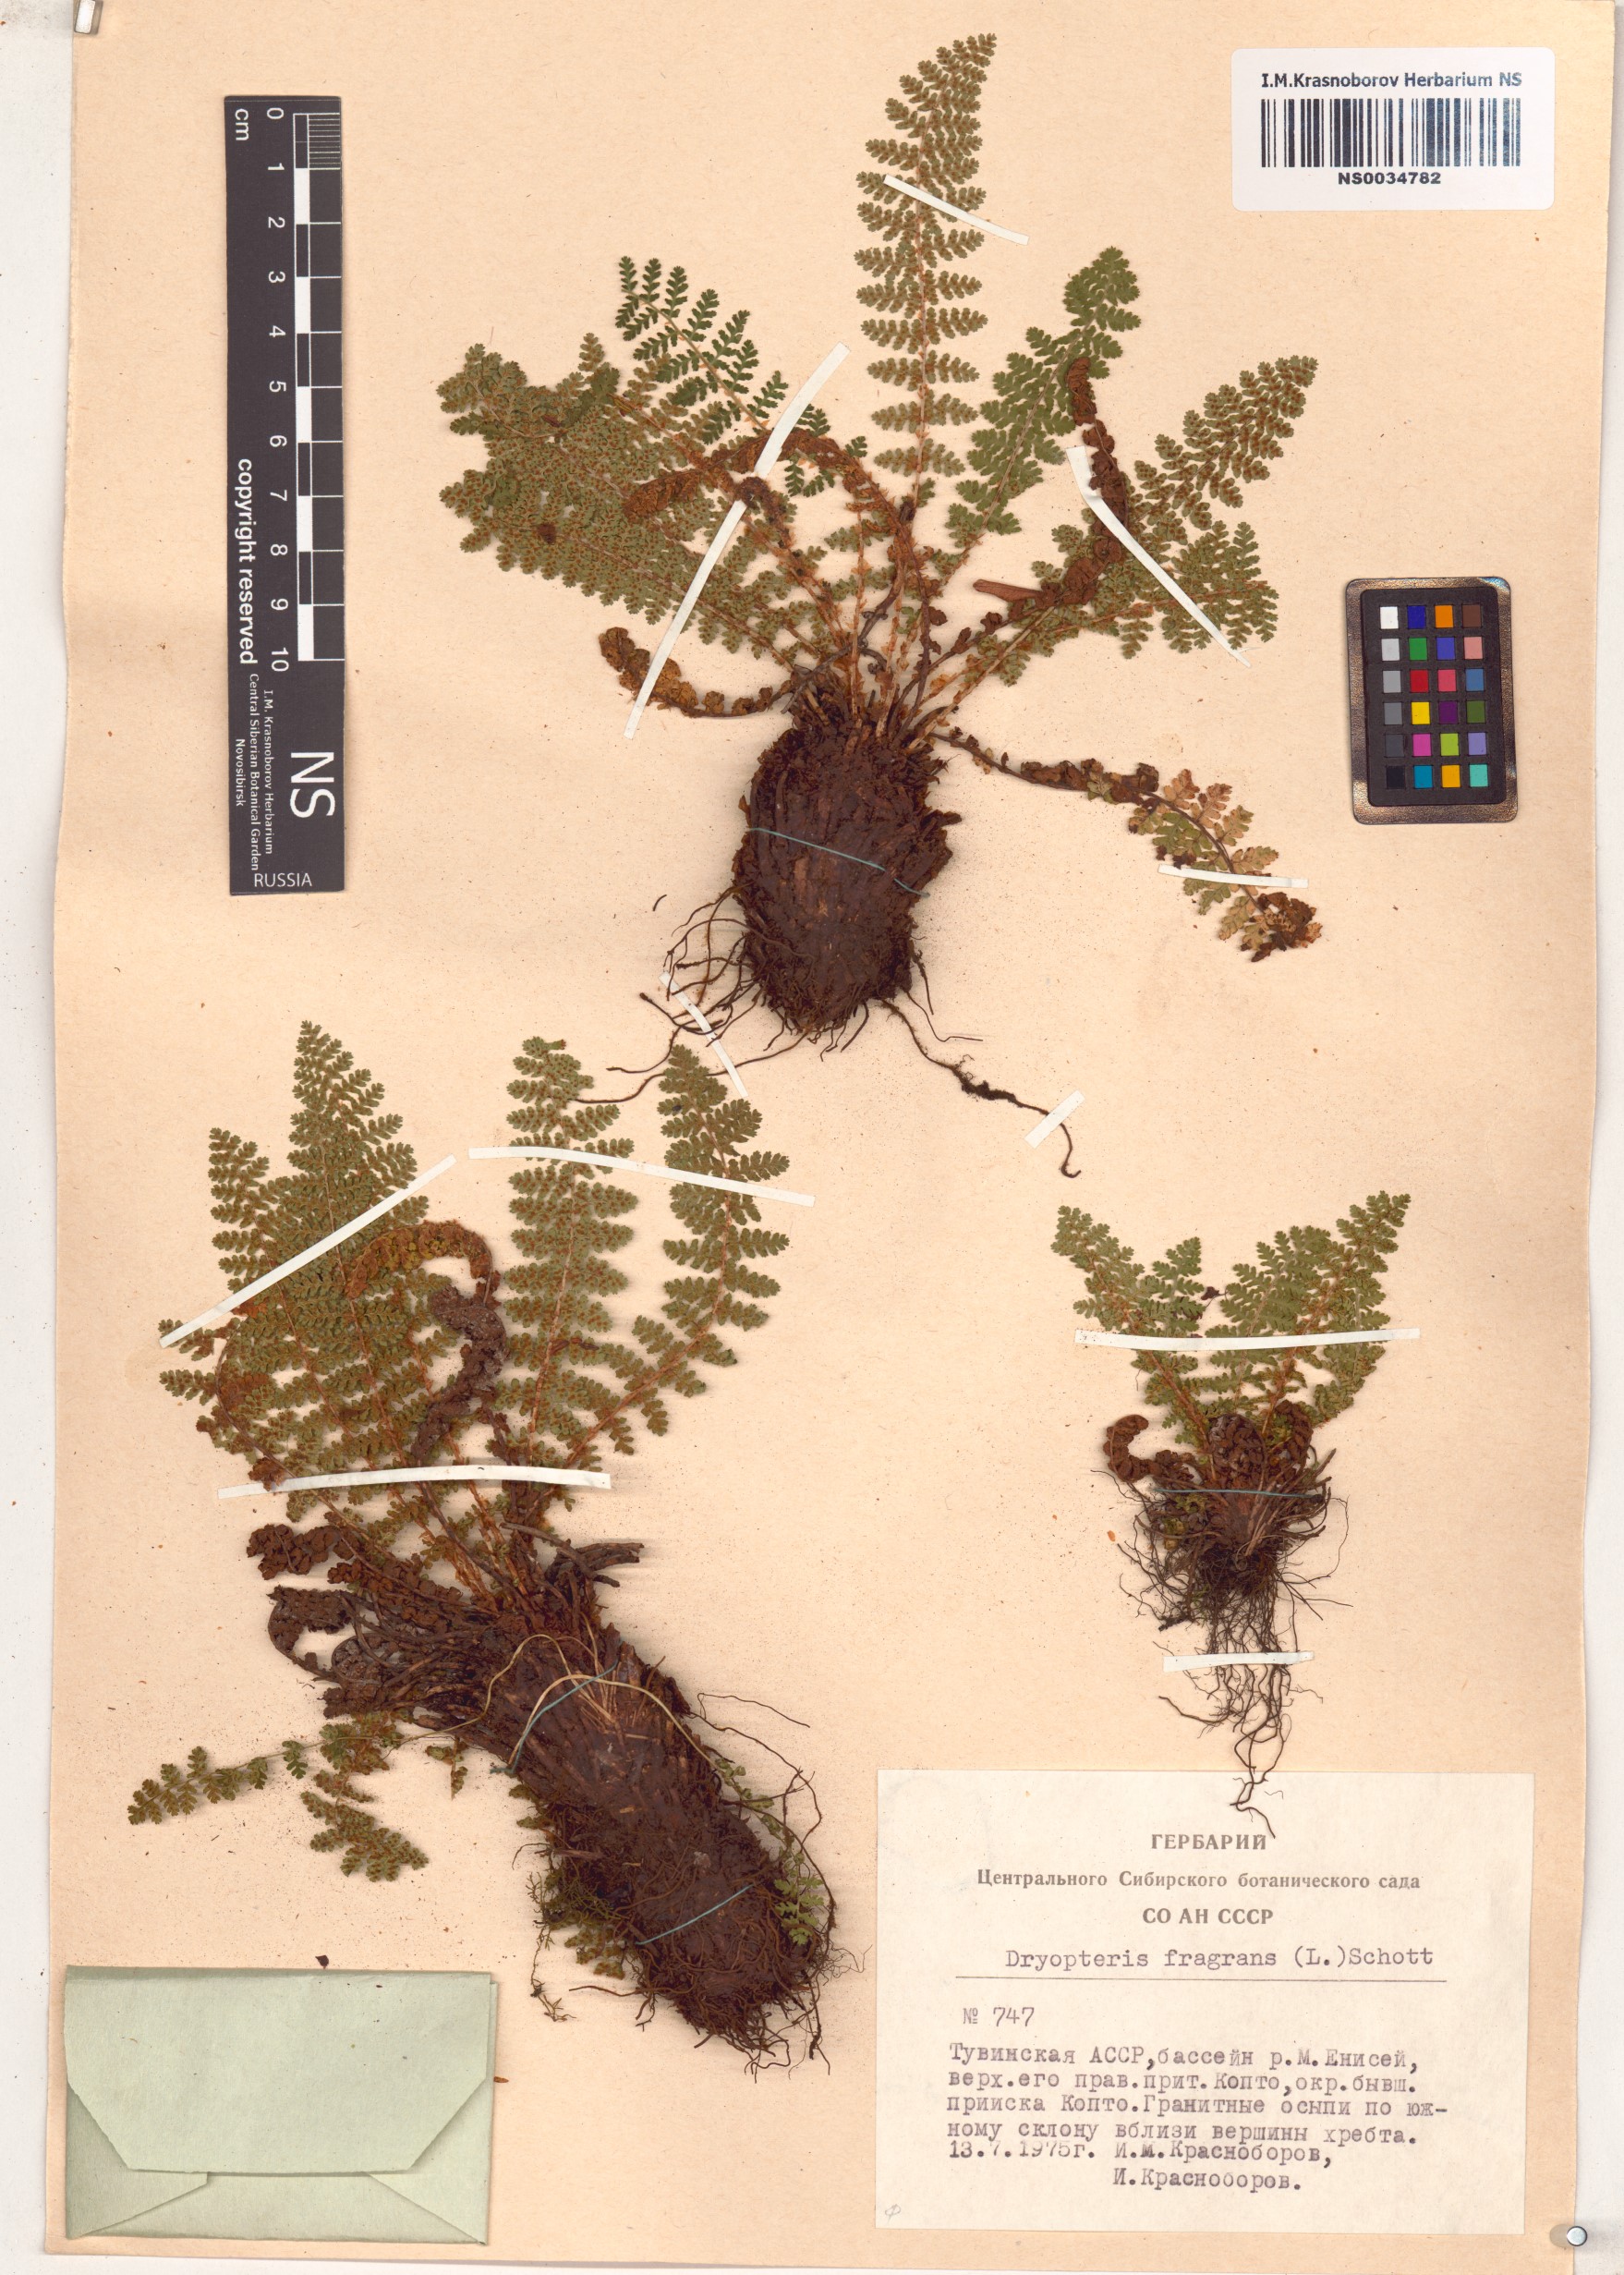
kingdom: Plantae
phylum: Tracheophyta
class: Polypodiopsida
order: Polypodiales
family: Dryopteridaceae
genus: Dryopteris
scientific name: Dryopteris fragrans
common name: Fragrant wood fern
